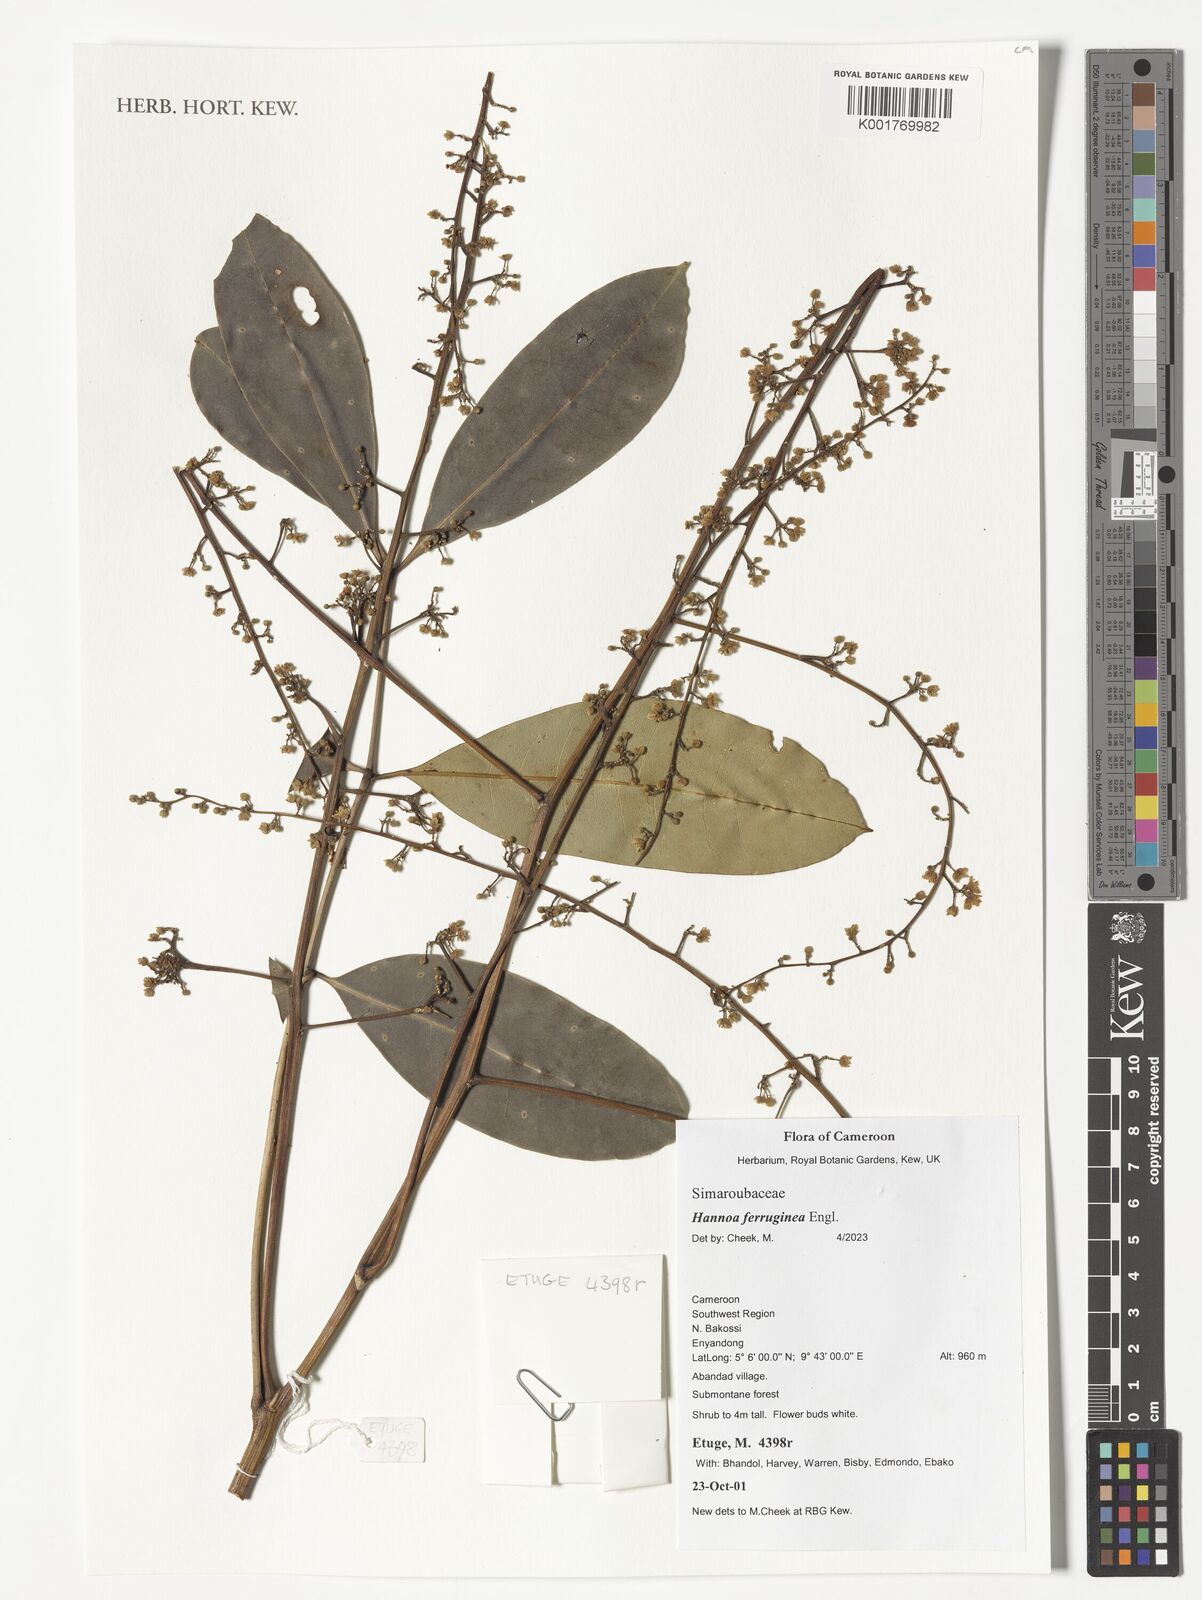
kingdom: Plantae
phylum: Tracheophyta
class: Magnoliopsida
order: Sapindales
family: Simaroubaceae
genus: Hannoa
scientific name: Hannoa ferruginea
